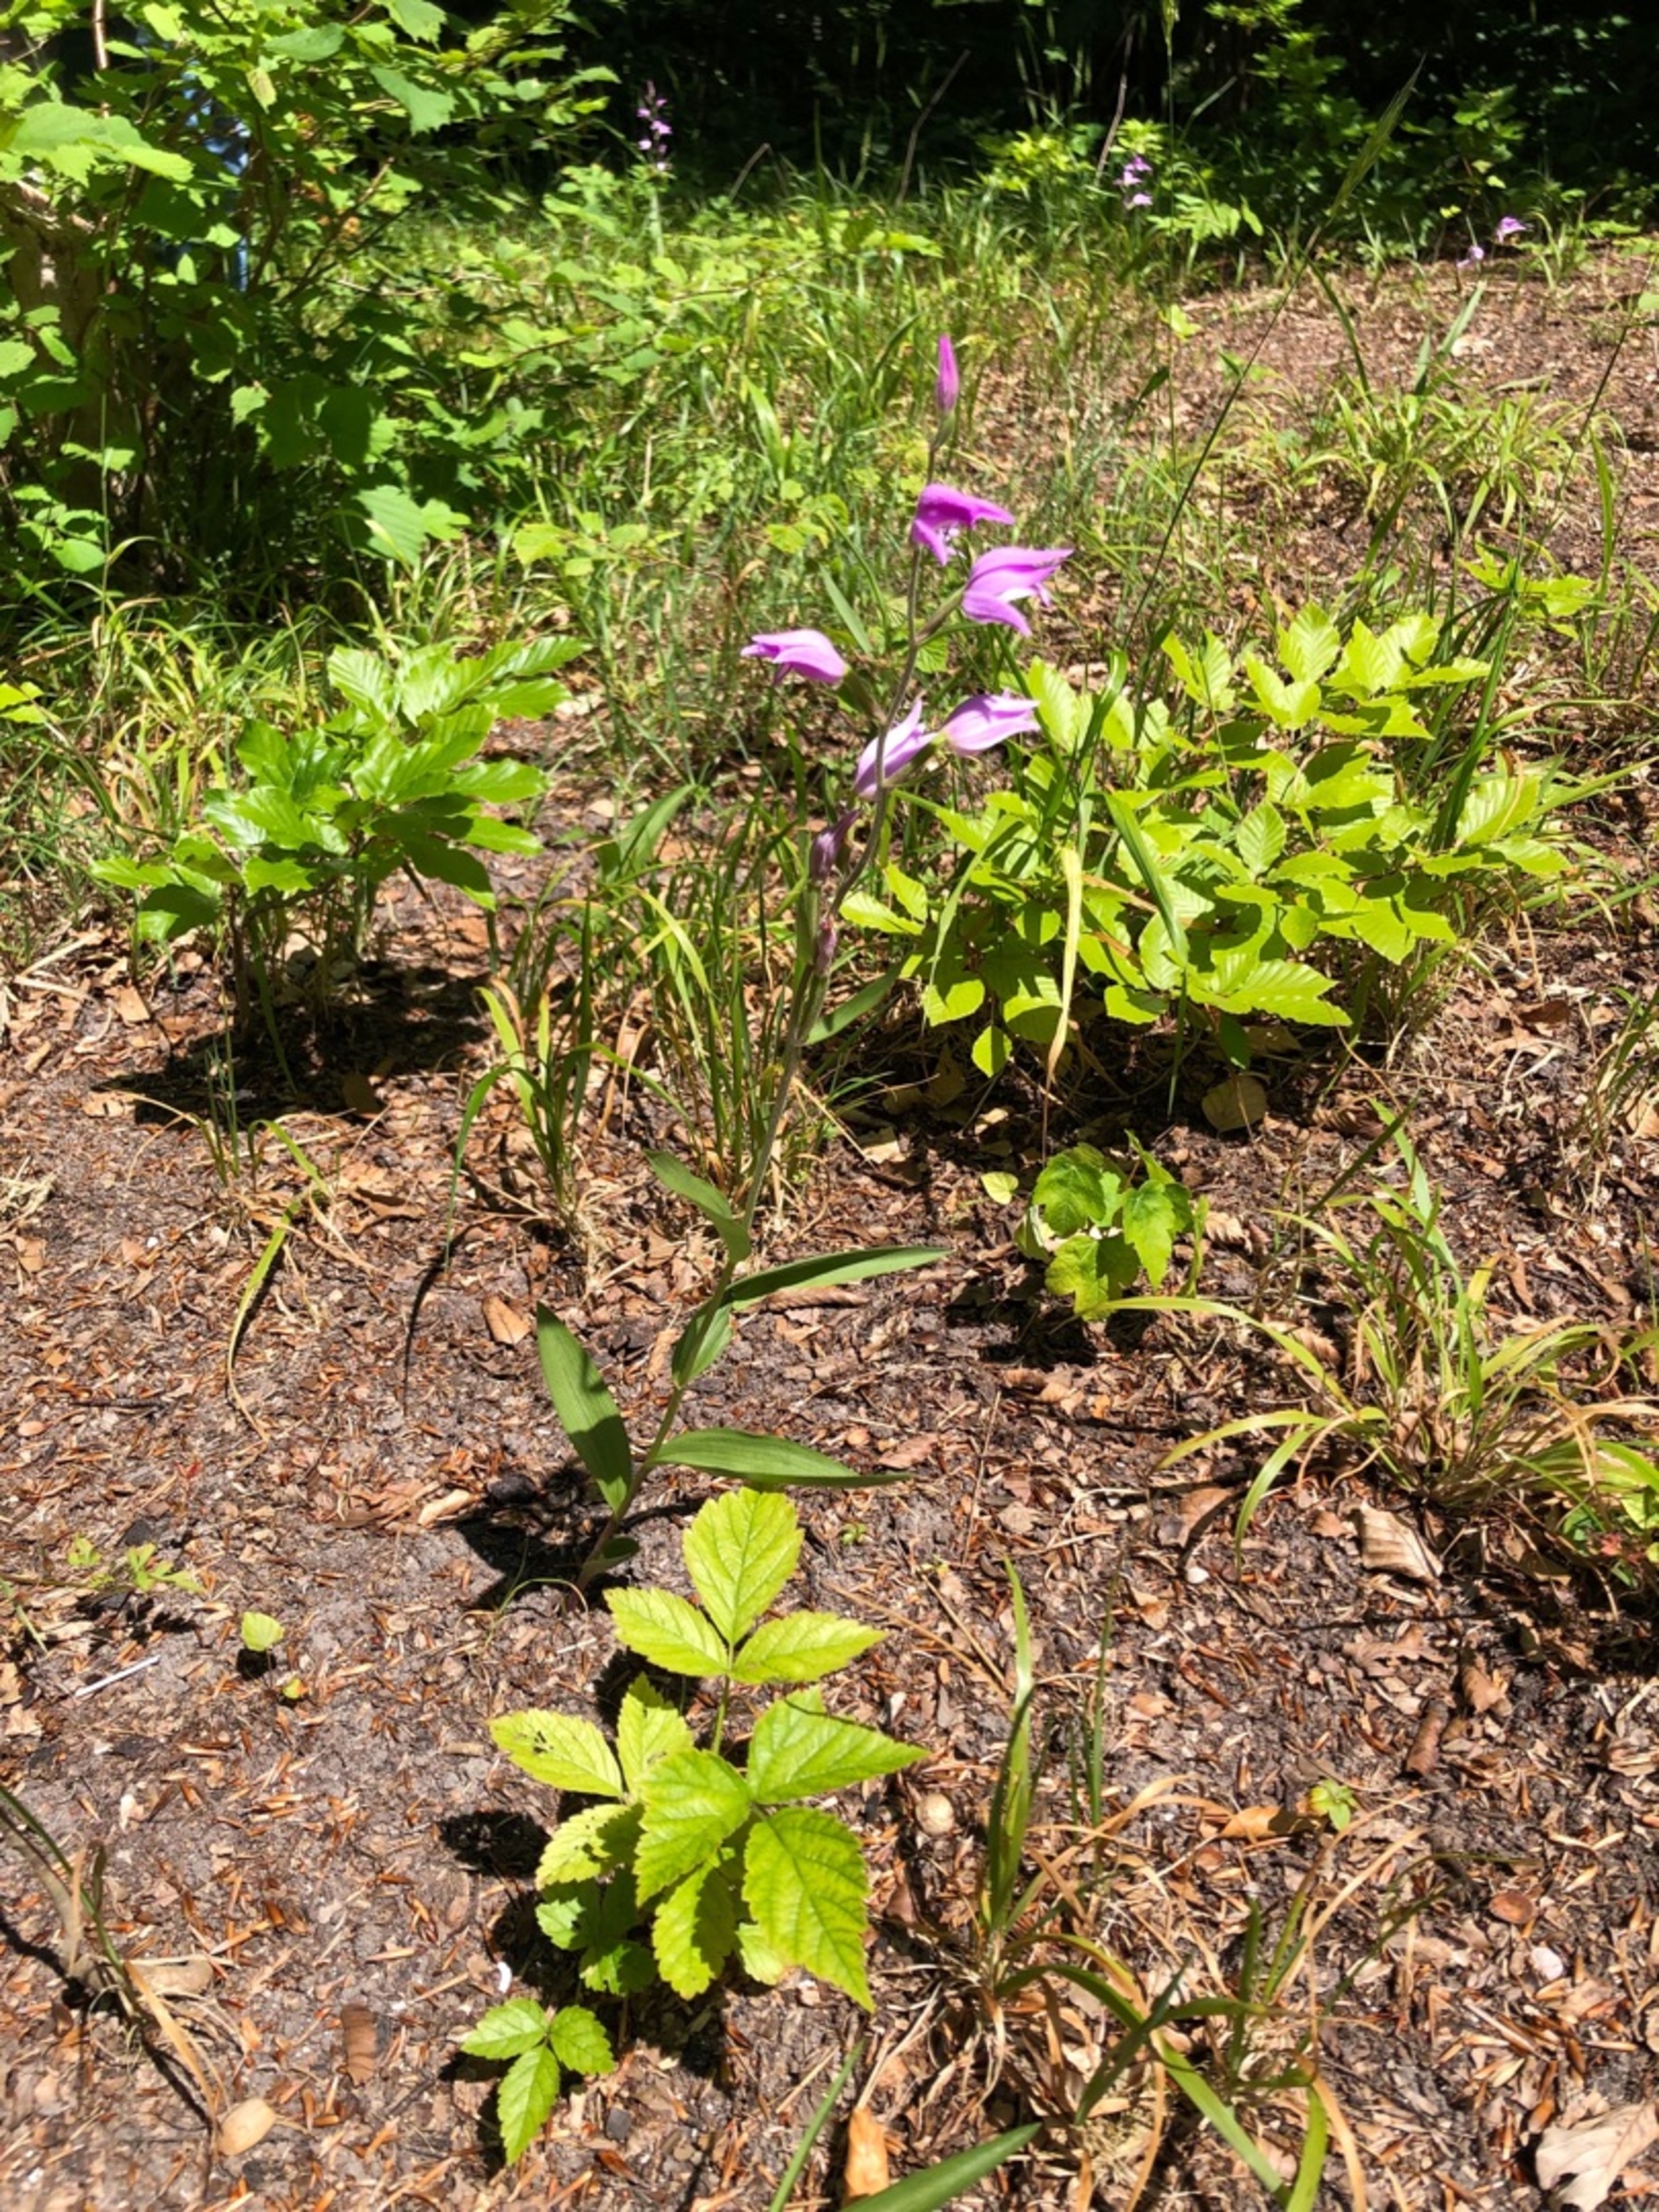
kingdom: Plantae
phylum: Tracheophyta
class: Liliopsida
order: Asparagales
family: Orchidaceae
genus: Cephalanthera
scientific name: Cephalanthera rubra
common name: Rød skovlilje
